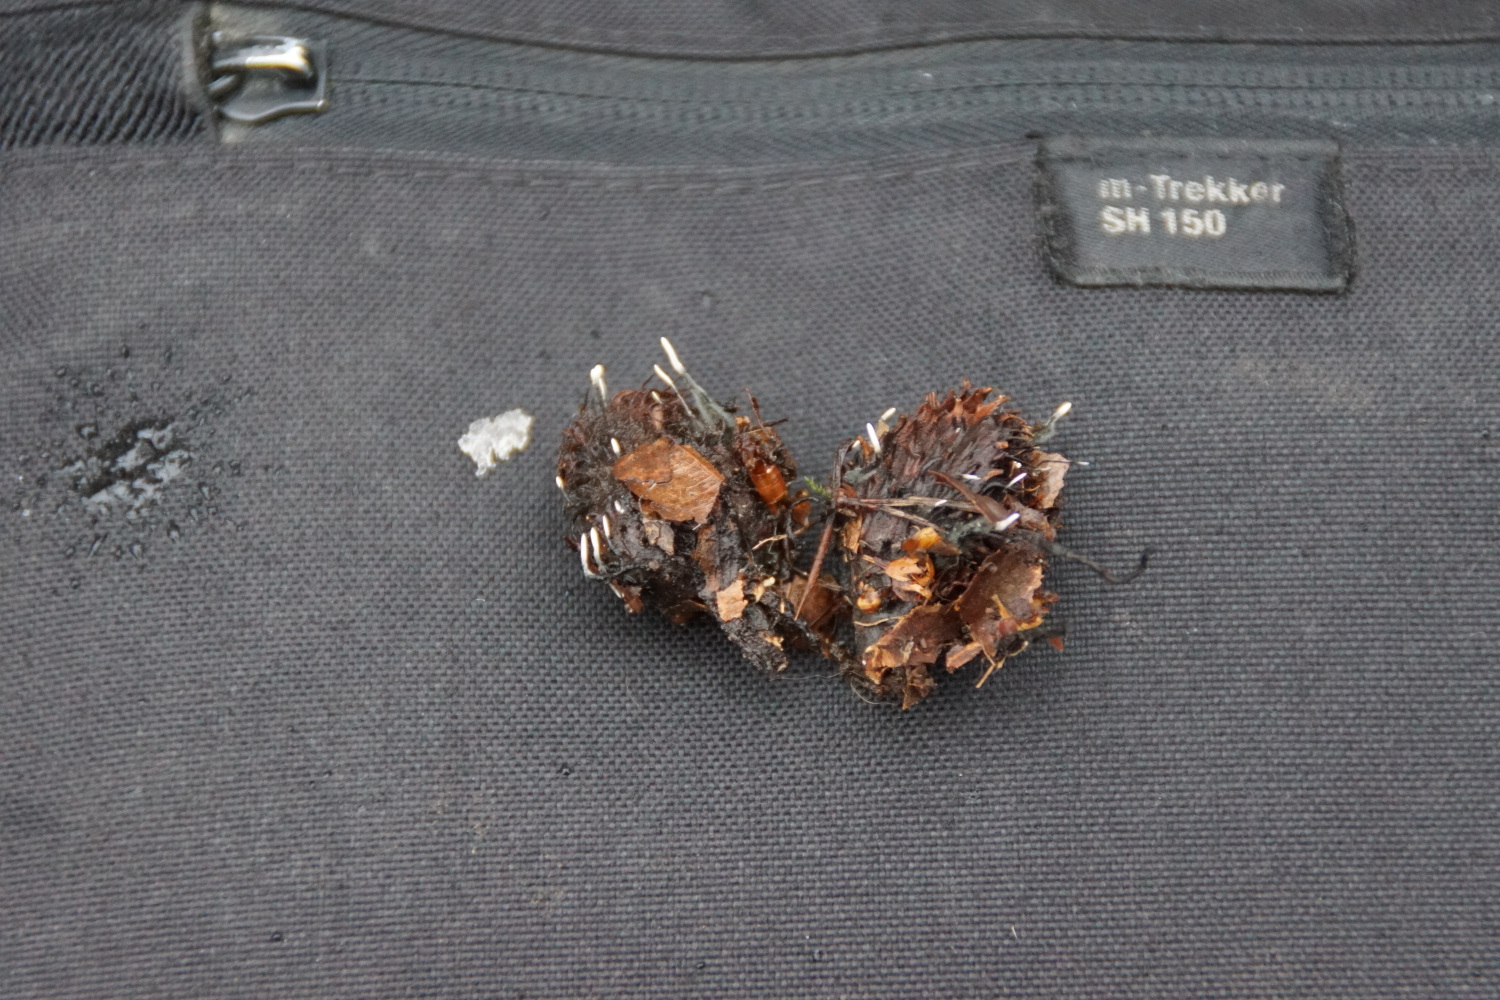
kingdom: Fungi
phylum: Ascomycota
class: Sordariomycetes
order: Xylariales
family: Xylariaceae
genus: Xylaria
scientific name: Xylaria carpophila
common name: bogskål-stødsvamp
